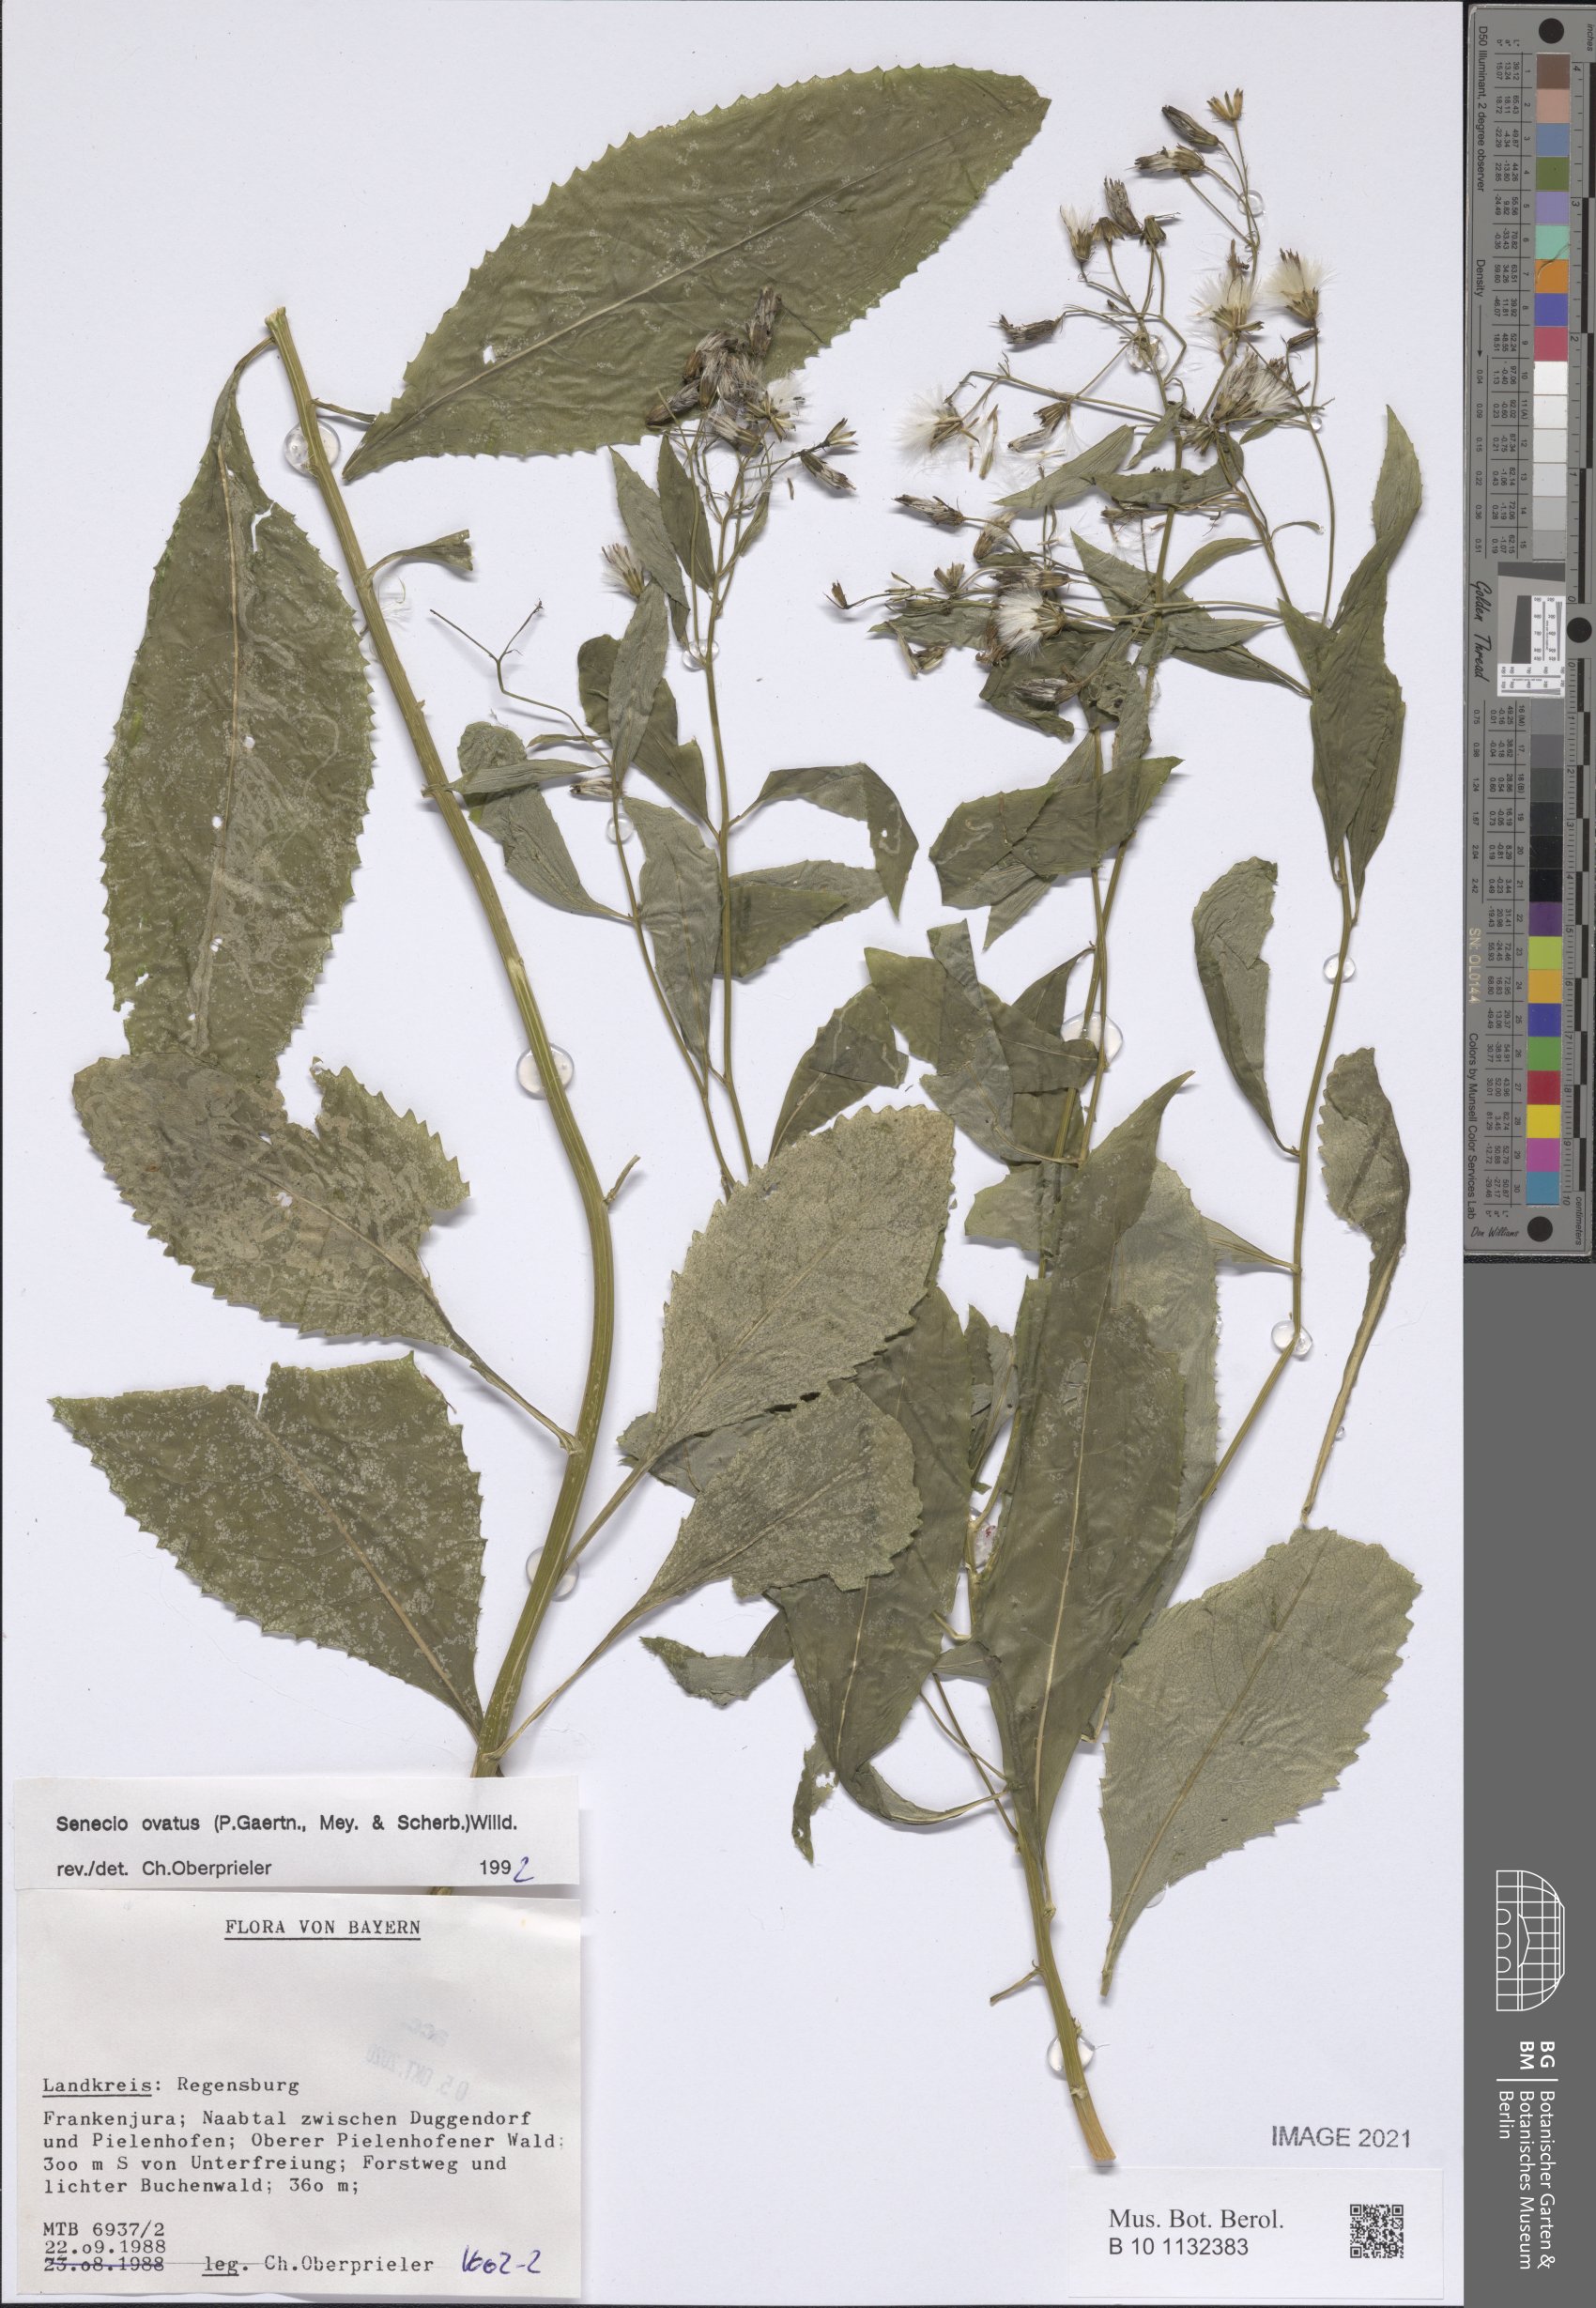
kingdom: Plantae
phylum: Tracheophyta
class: Magnoliopsida
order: Asterales
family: Asteraceae
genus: Senecio
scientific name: Senecio ovatus
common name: Wood ragwort
